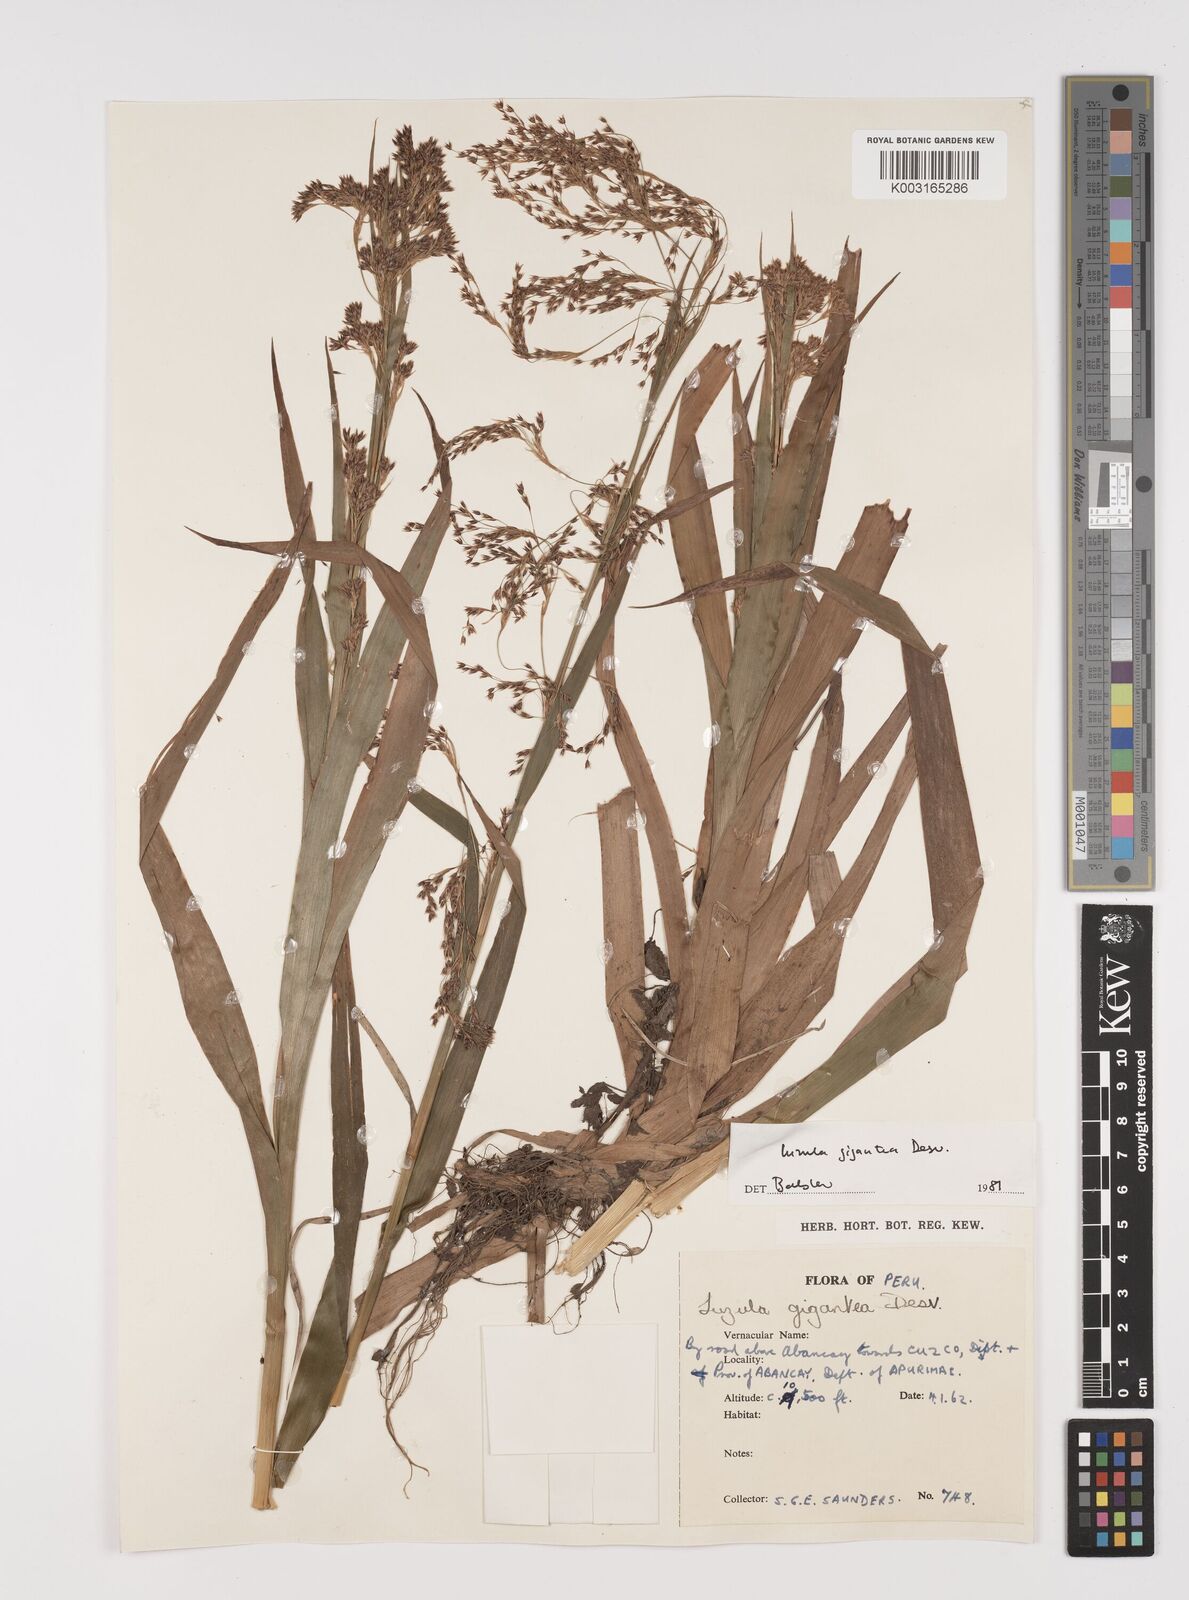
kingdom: Plantae
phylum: Tracheophyta
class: Liliopsida
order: Poales
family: Juncaceae
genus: Luzula
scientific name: Luzula gigantea
